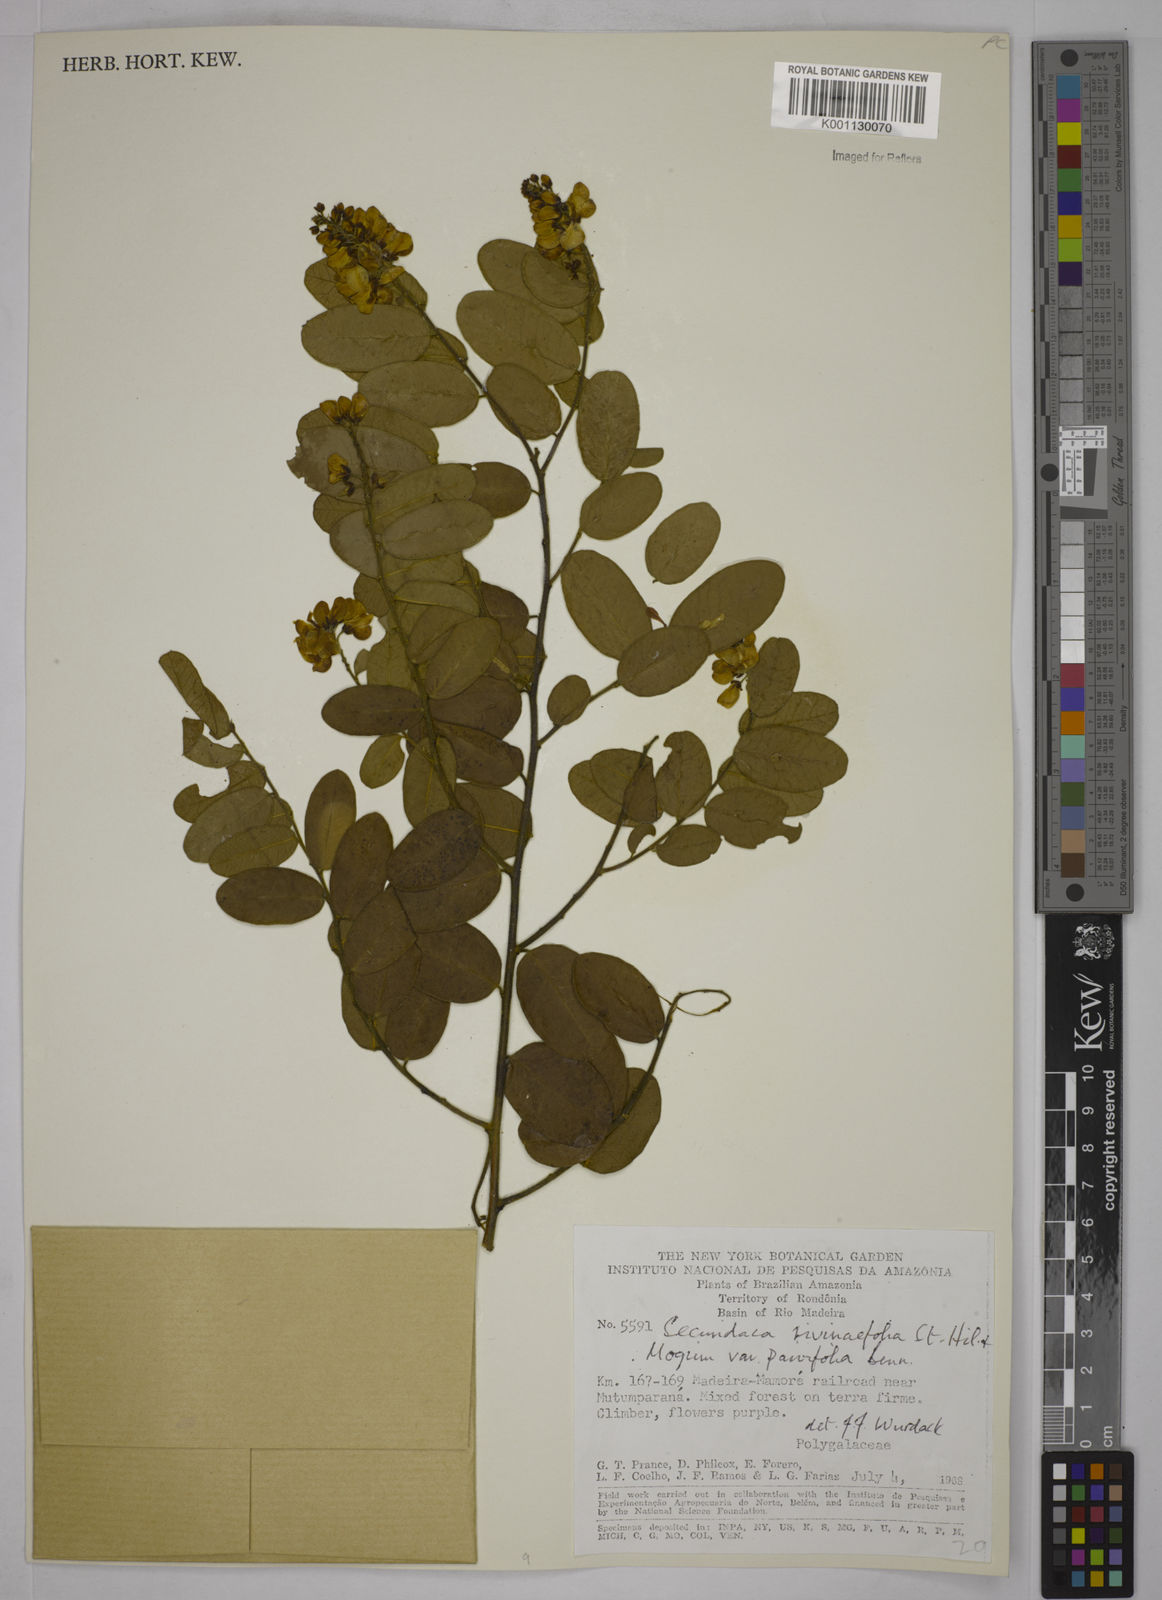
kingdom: Plantae
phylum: Tracheophyta
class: Magnoliopsida
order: Fabales
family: Polygalaceae
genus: Securidaca
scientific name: Securidaca rivinifolia
